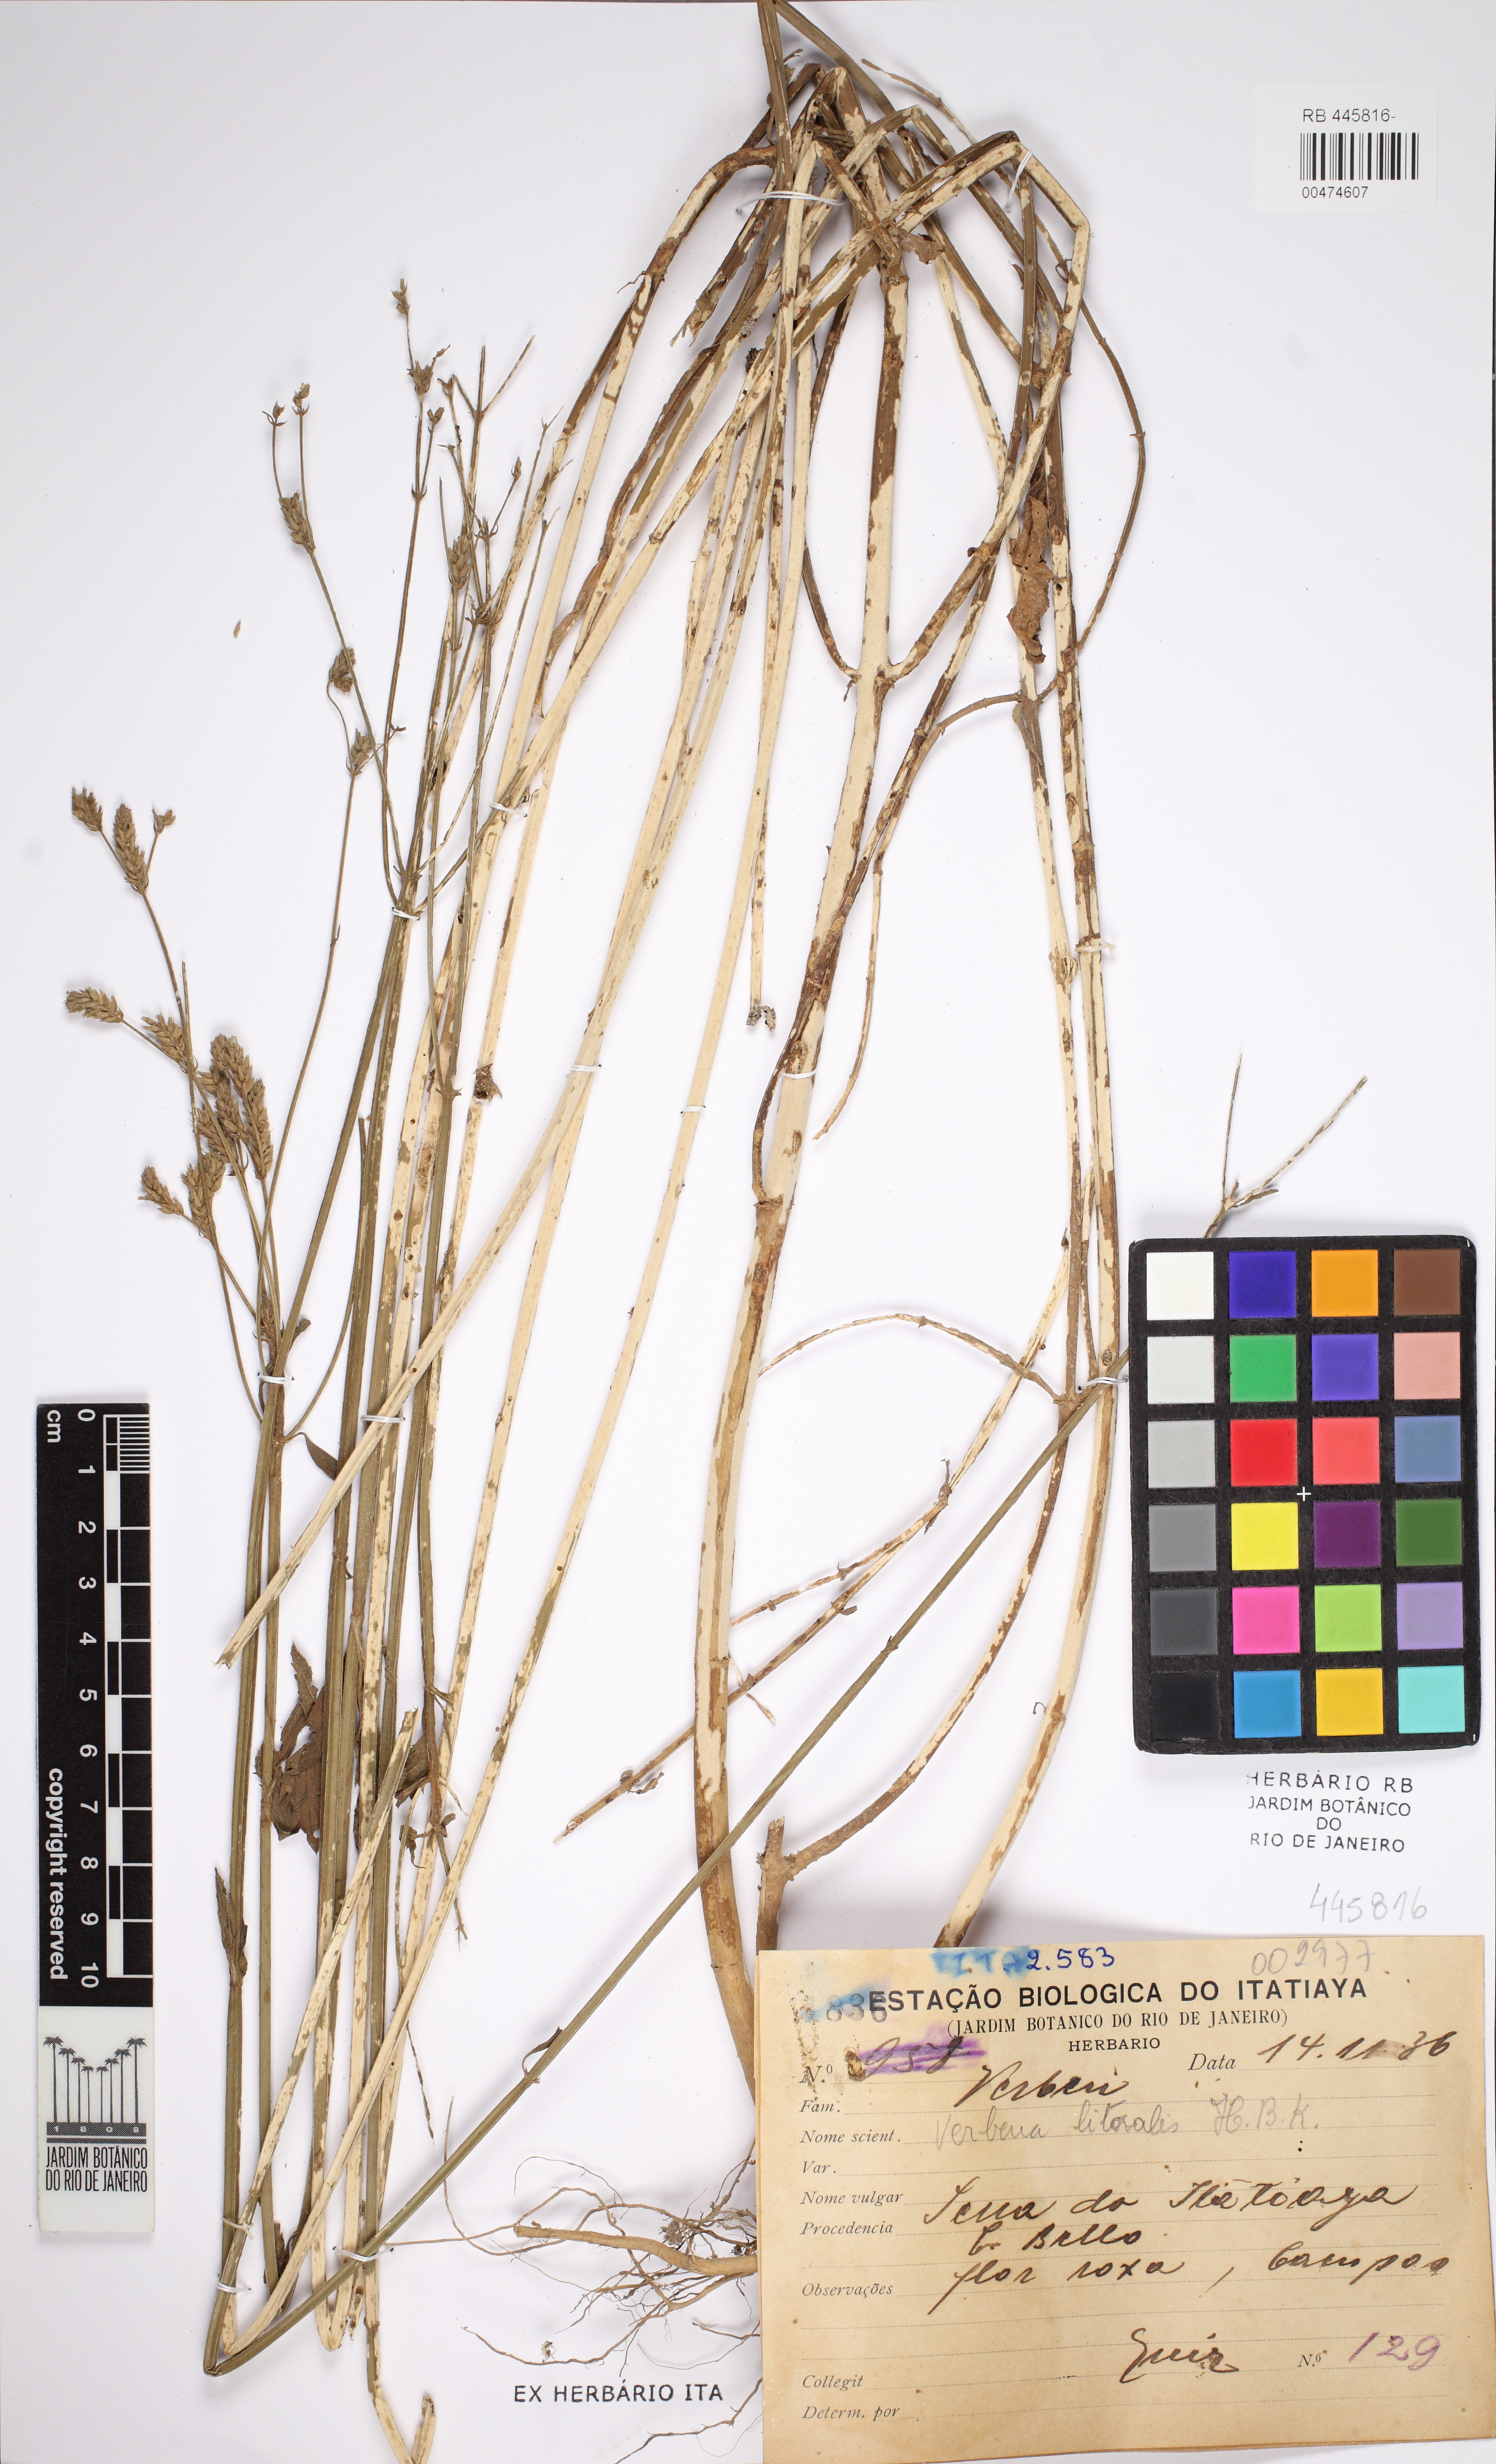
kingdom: Plantae
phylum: Tracheophyta
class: Magnoliopsida
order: Lamiales
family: Verbenaceae
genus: Verbena
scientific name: Verbena litoralis
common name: Seashore vervain
